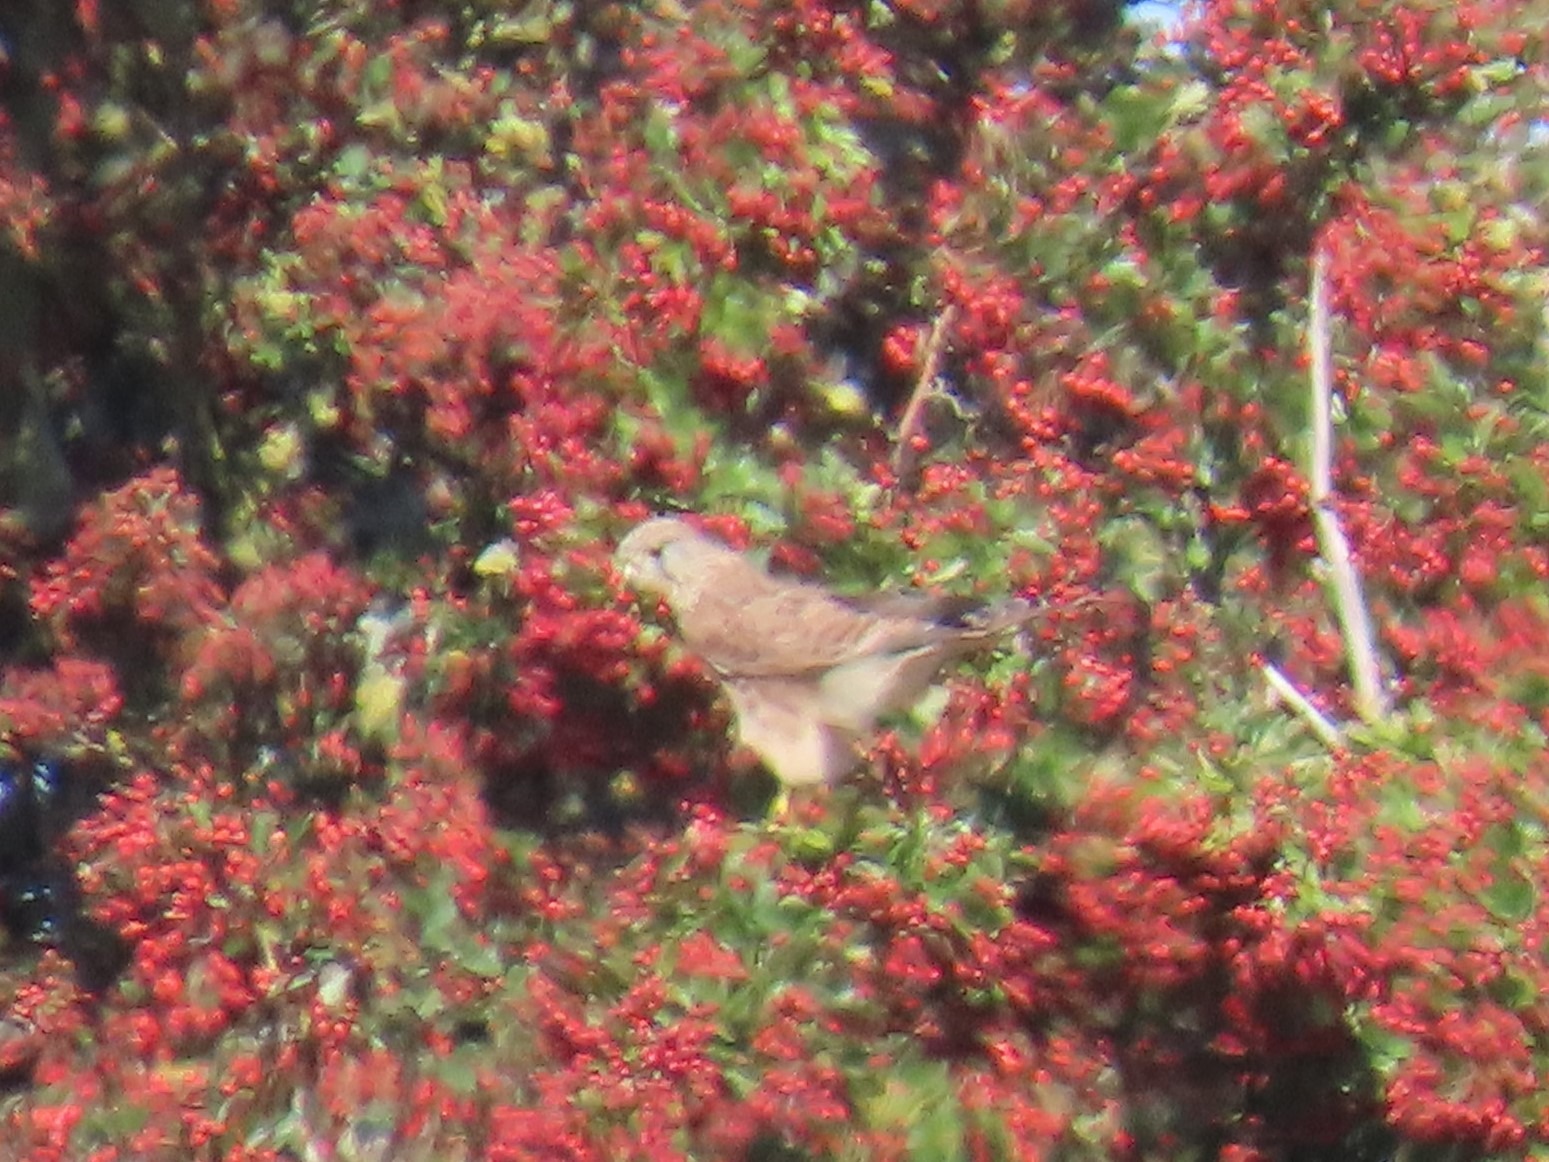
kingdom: Animalia
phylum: Chordata
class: Aves
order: Falconiformes
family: Falconidae
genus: Falco
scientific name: Falco tinnunculus
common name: Tårnfalk
